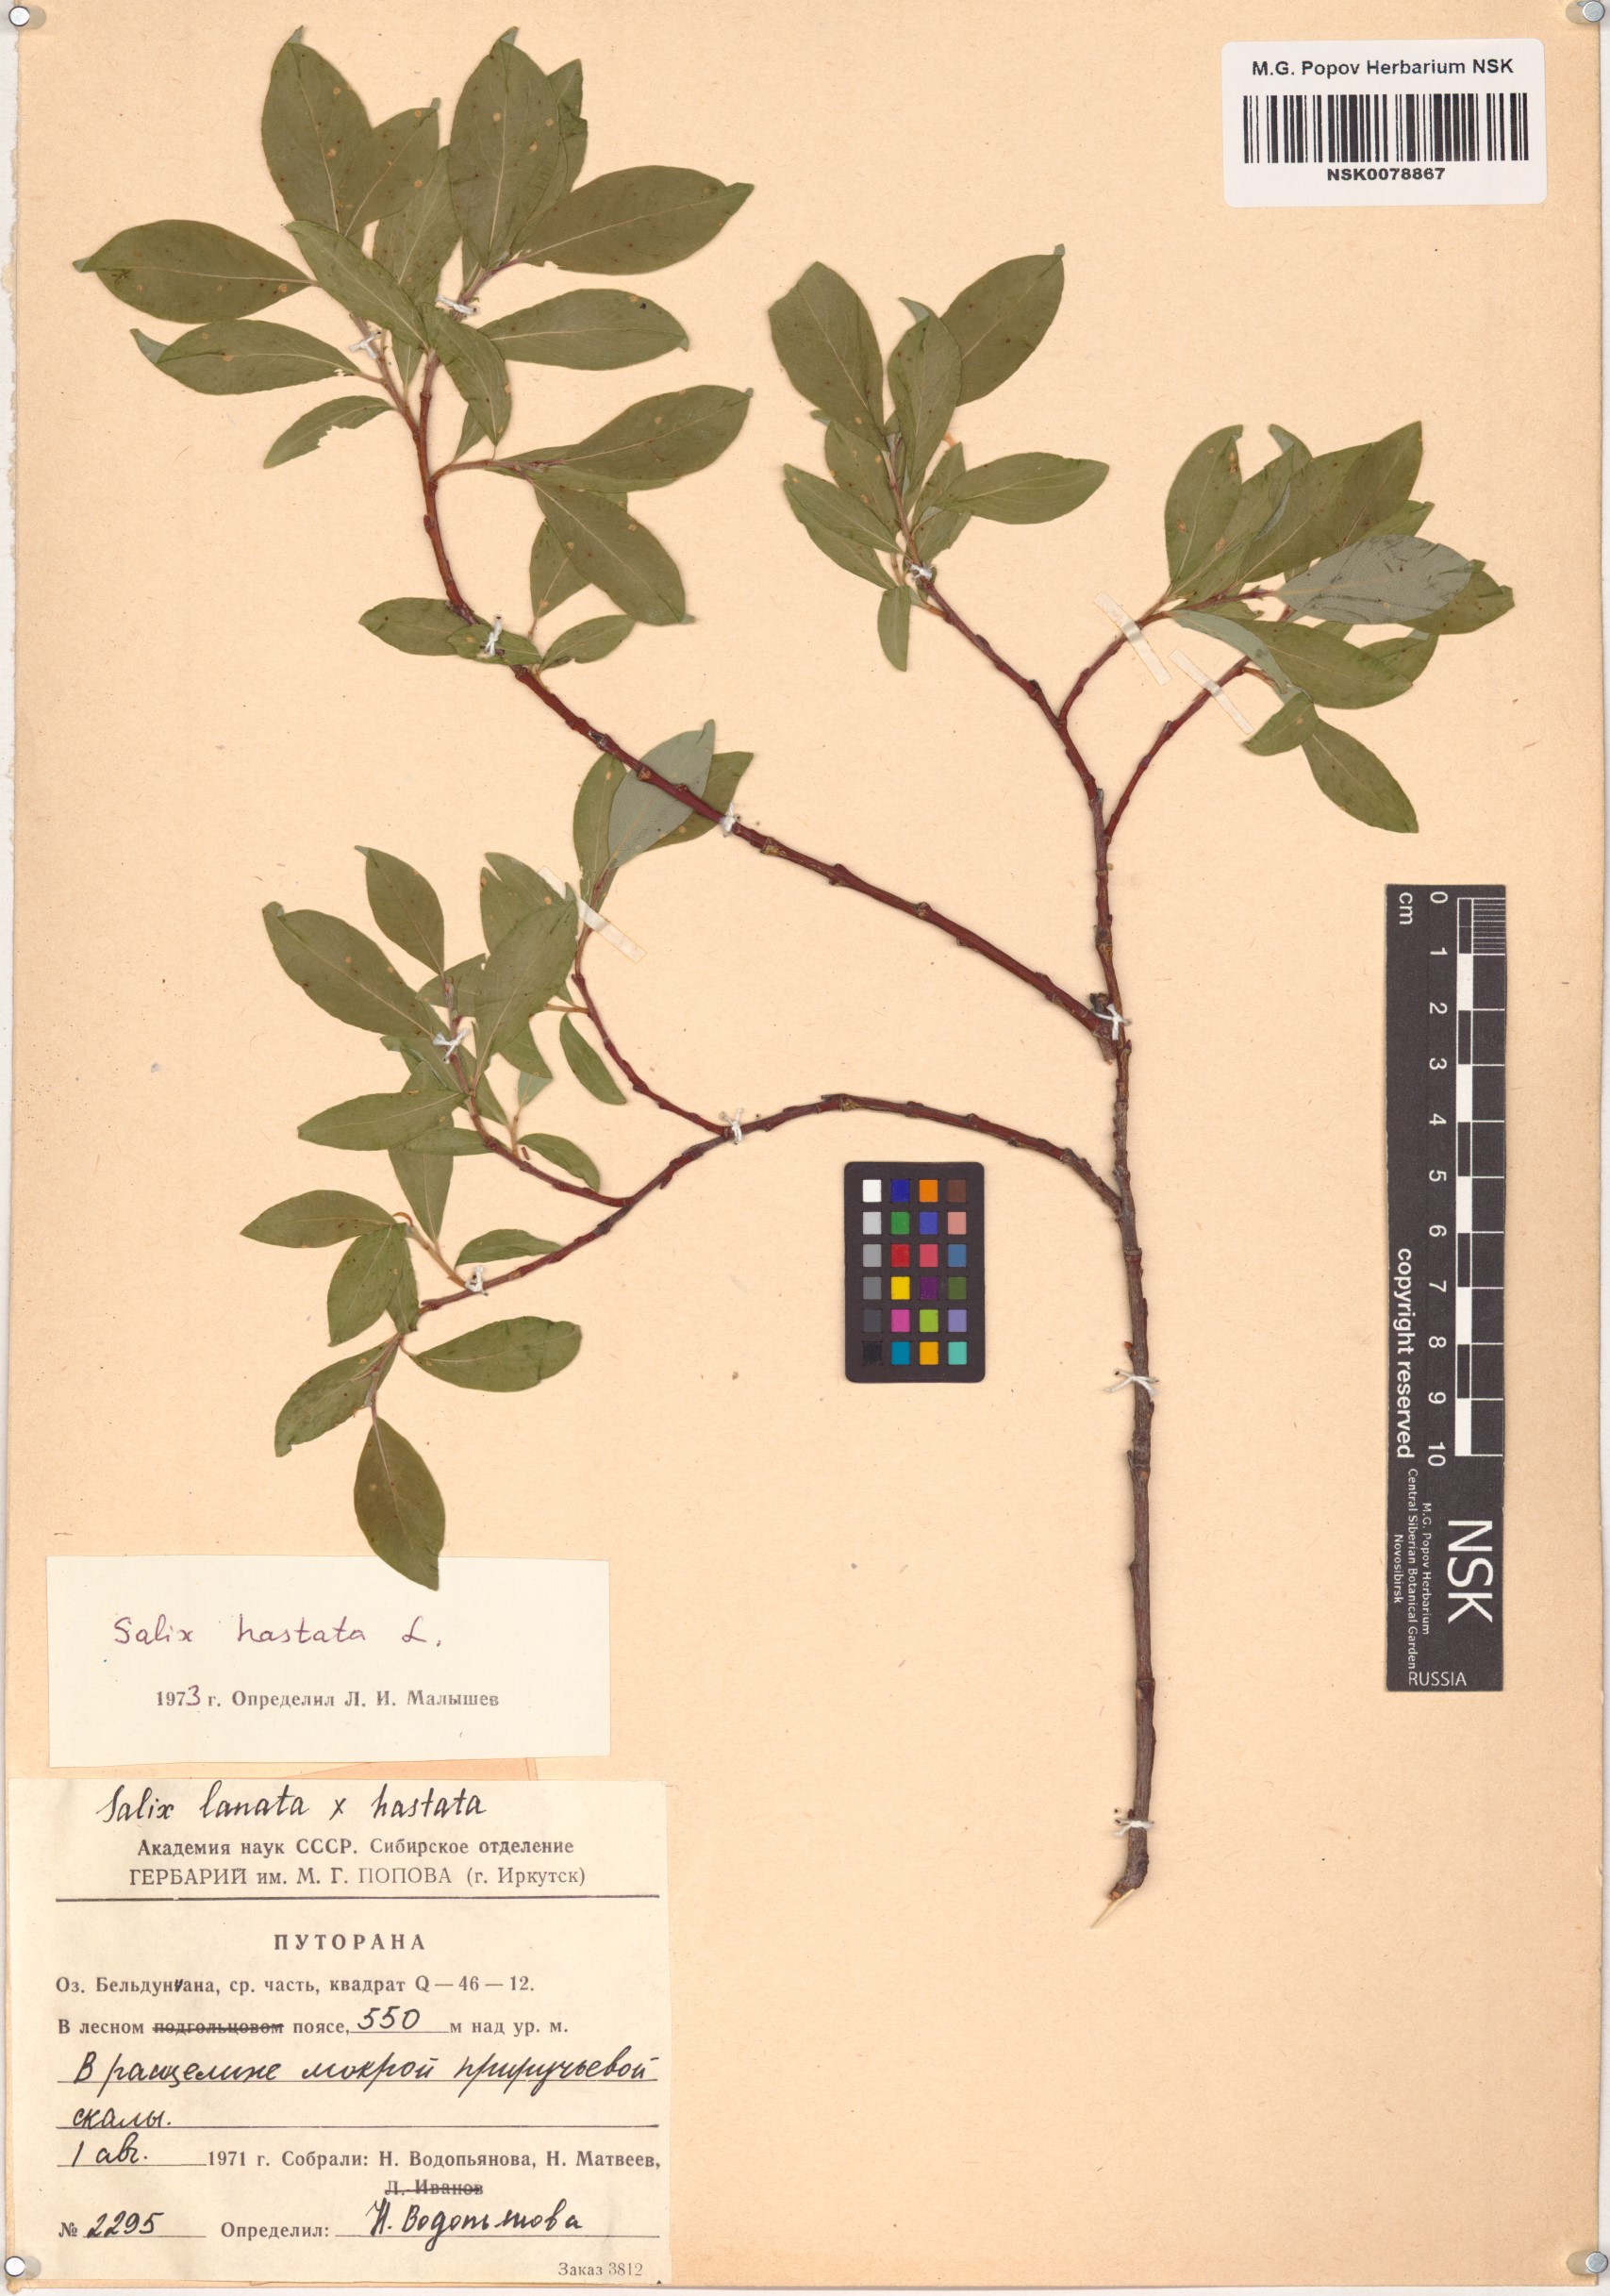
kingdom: Plantae
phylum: Tracheophyta
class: Magnoliopsida
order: Malpighiales
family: Salicaceae
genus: Salix
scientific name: Salix hastata
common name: Halberd willow
